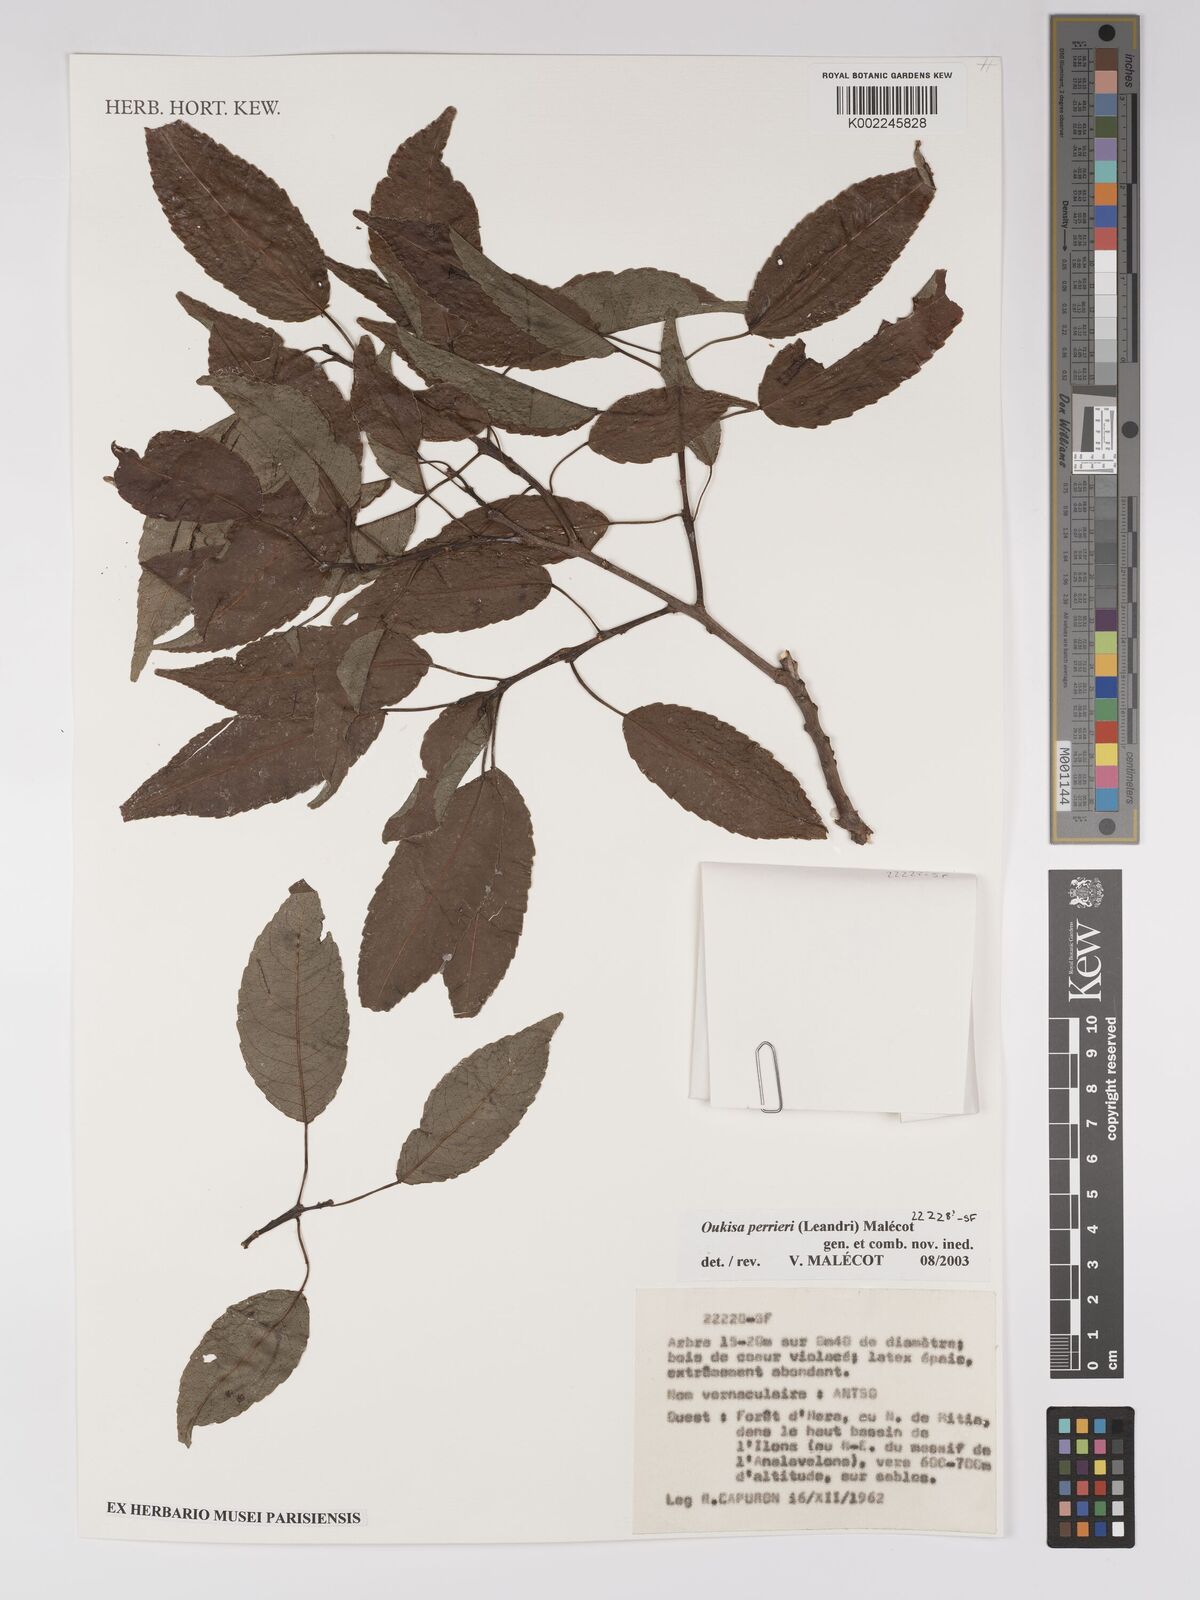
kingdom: Plantae
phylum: Tracheophyta
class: Magnoliopsida
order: Malpighiales
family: Euphorbiaceae
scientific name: Euphorbiaceae
